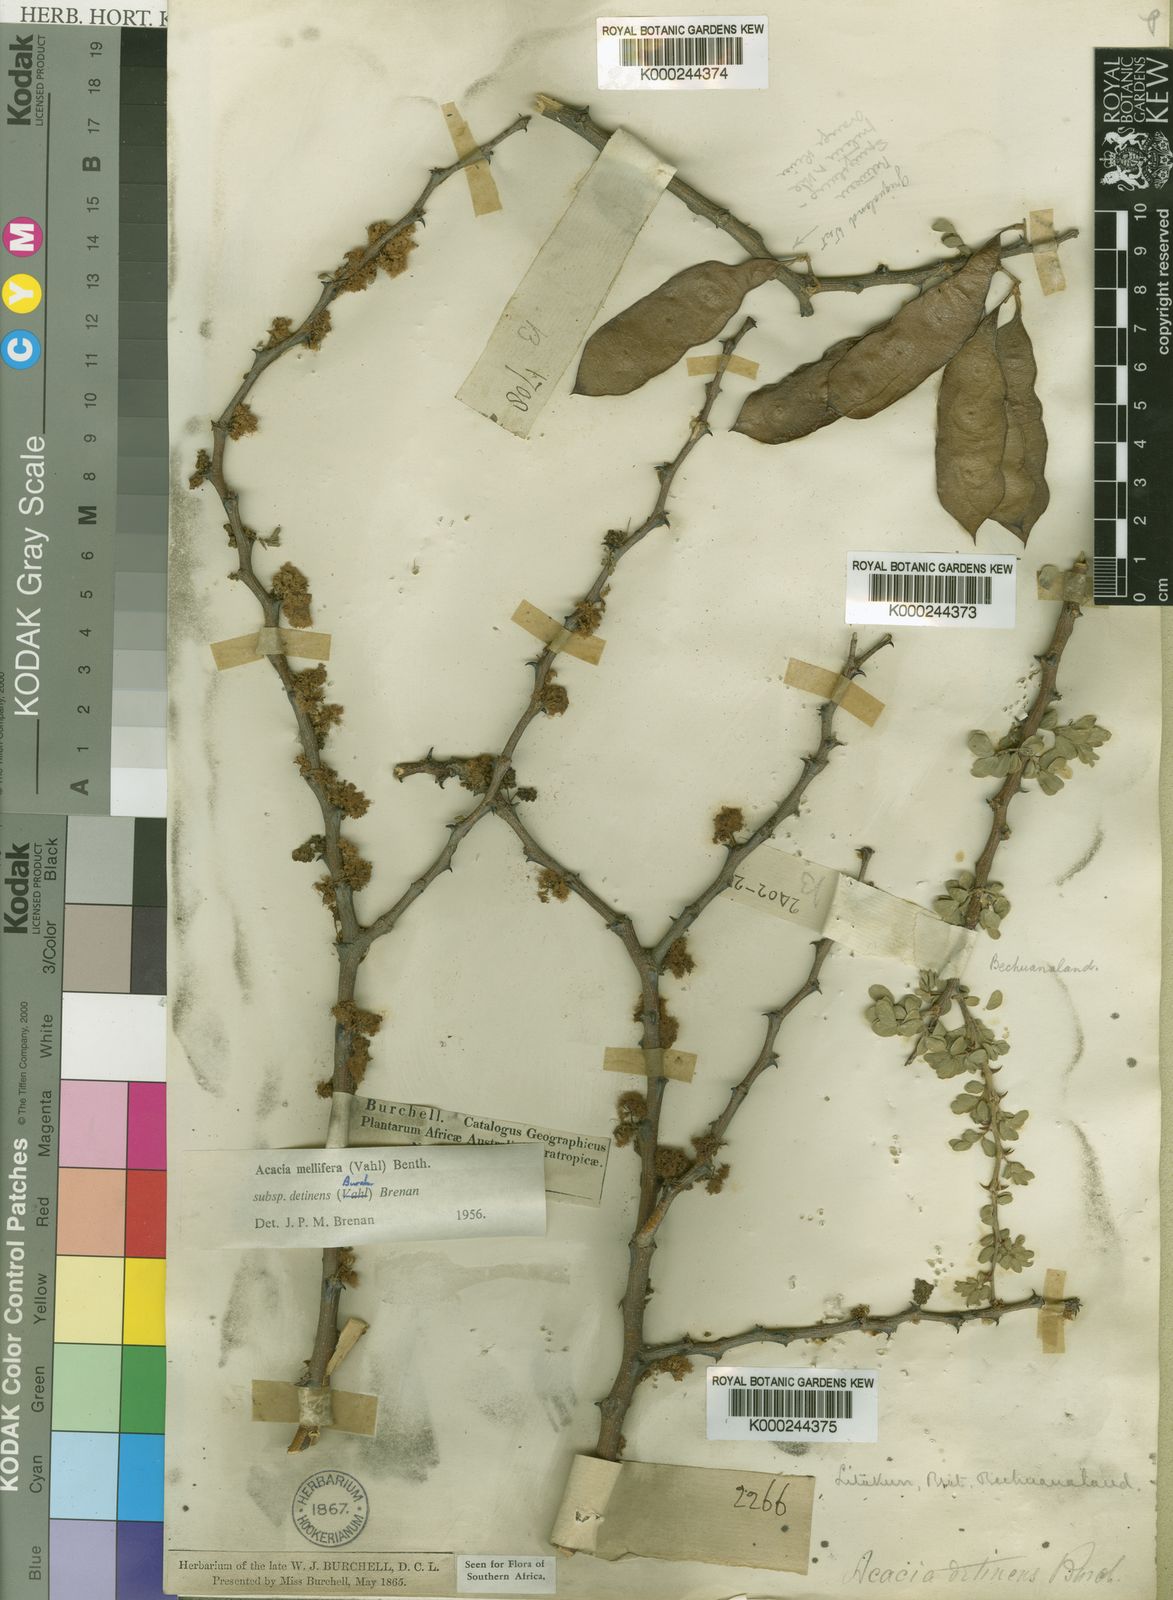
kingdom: Plantae
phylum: Tracheophyta
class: Magnoliopsida
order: Fabales
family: Fabaceae
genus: Senegalia
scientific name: Senegalia mellifera
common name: Hookthorn
